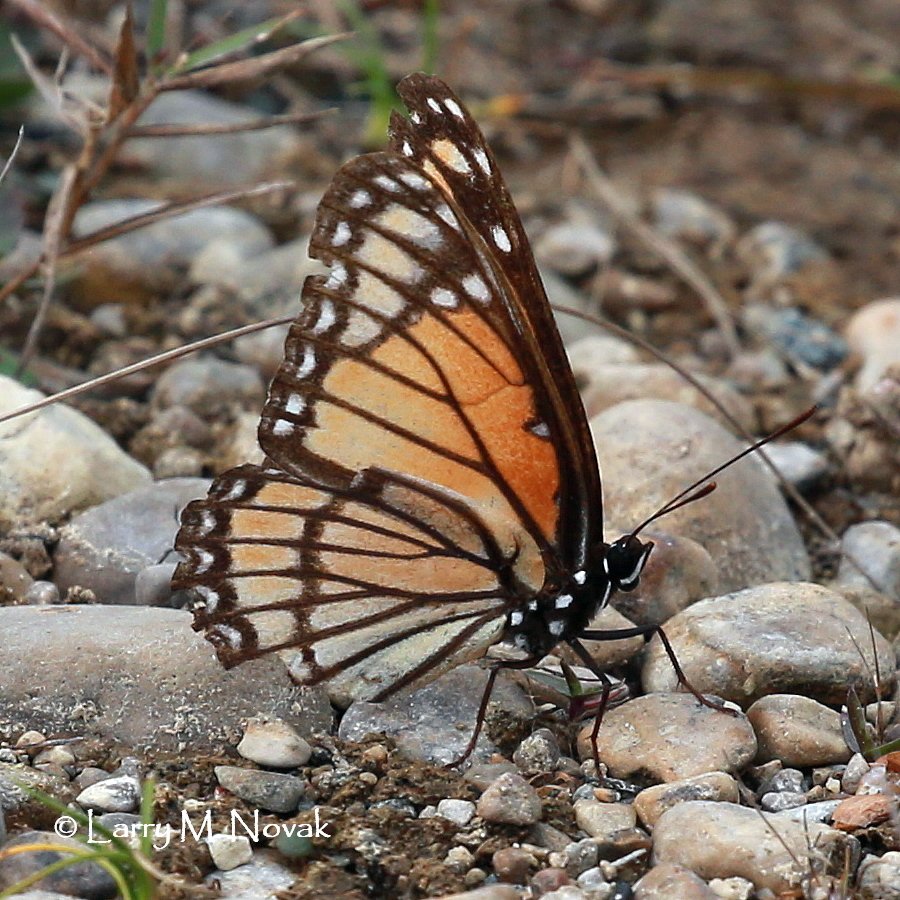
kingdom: Animalia
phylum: Arthropoda
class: Insecta
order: Lepidoptera
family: Nymphalidae
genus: Limenitis
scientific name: Limenitis archippus
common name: Viceroy
